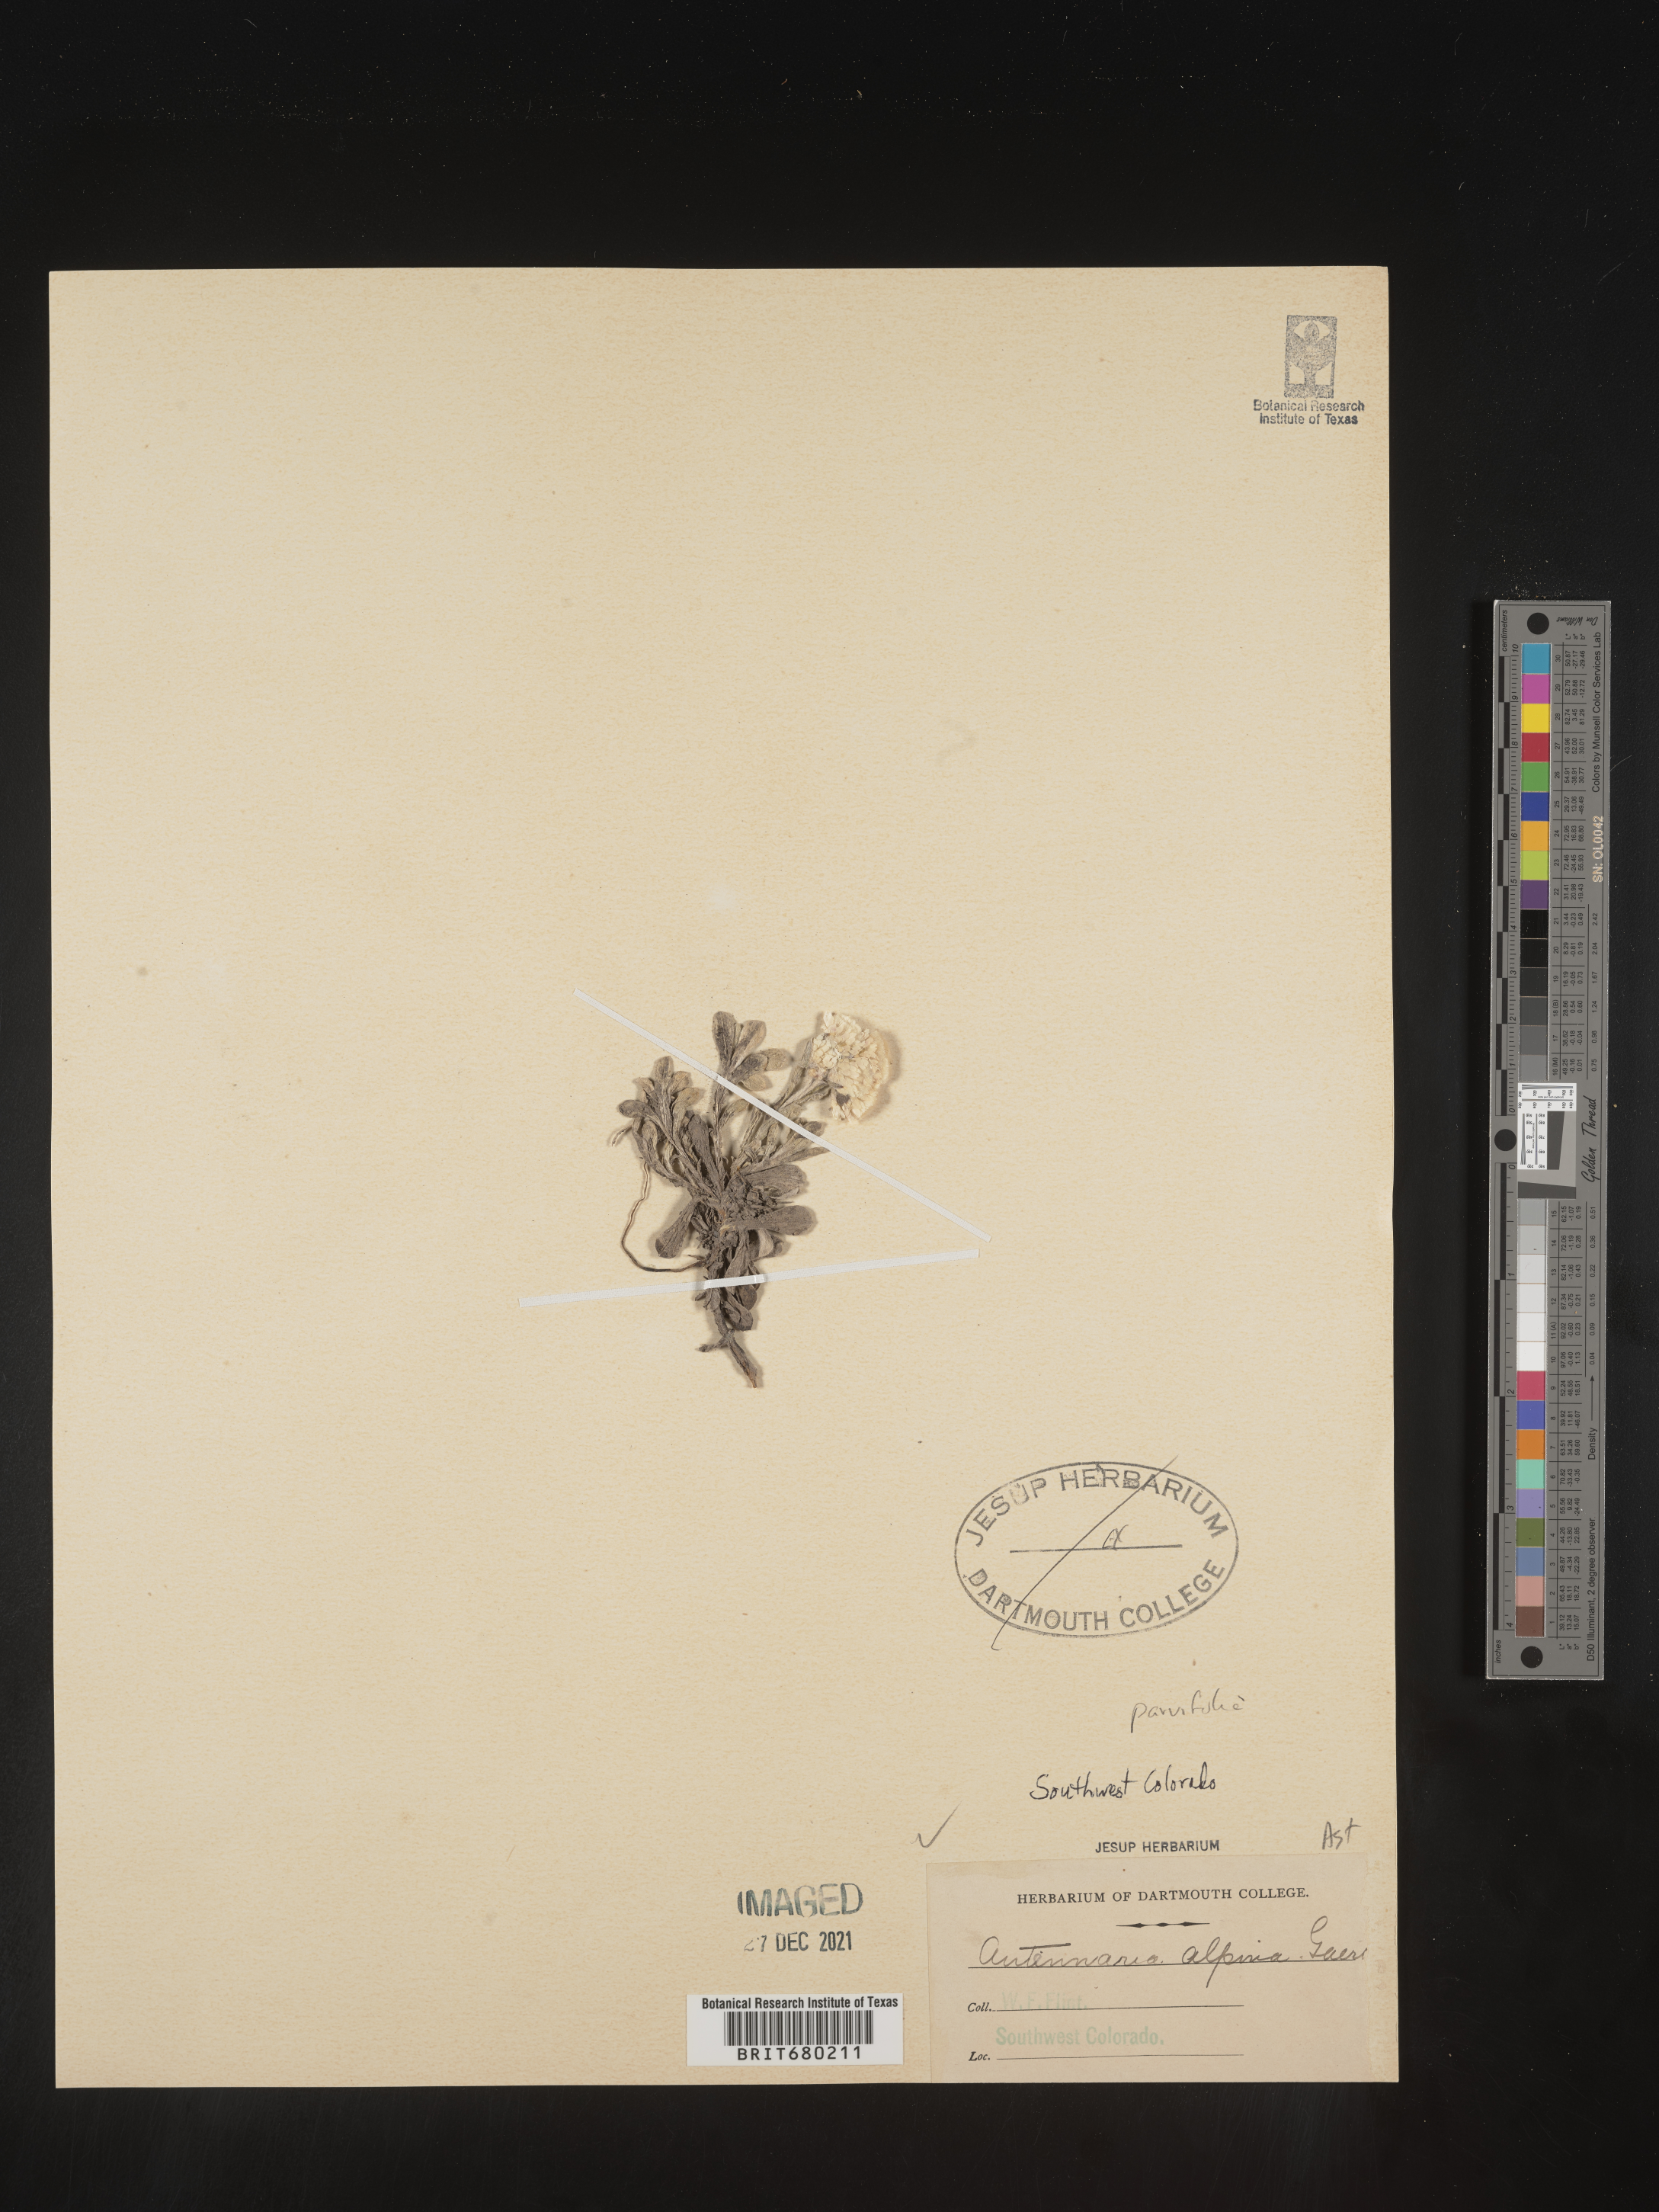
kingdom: Plantae
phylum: Tracheophyta
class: Magnoliopsida
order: Asterales
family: Asteraceae
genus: Antennaria
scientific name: Antennaria plantaginifolia
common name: Plantain-leaved pussytoes
